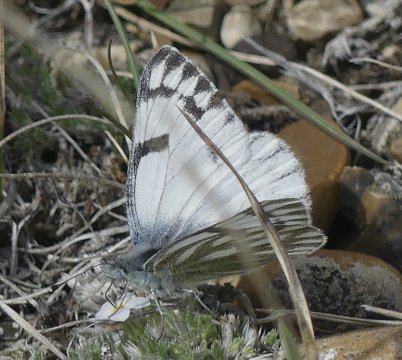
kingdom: Animalia
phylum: Arthropoda
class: Insecta
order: Lepidoptera
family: Pieridae
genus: Pontia
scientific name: Pontia occidentalis
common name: Western White
